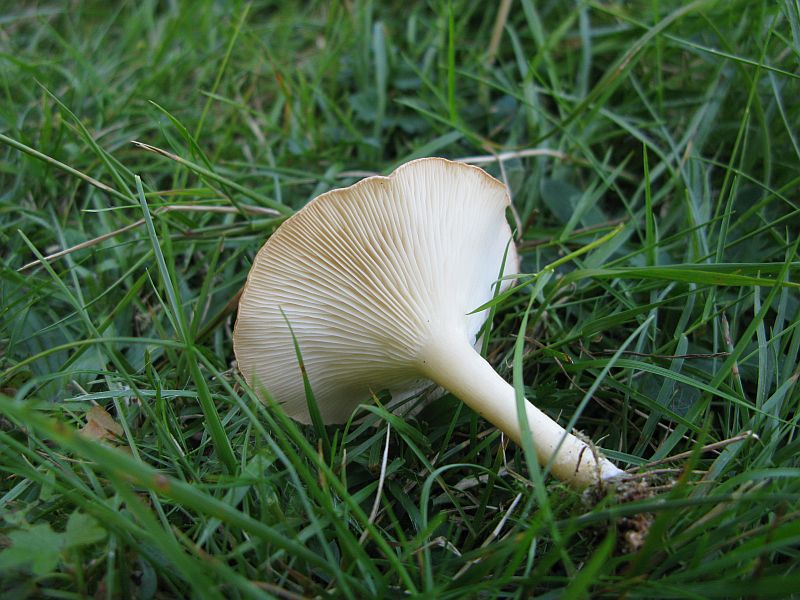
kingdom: Fungi
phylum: Basidiomycota
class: Agaricomycetes
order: Agaricales
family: Tricholomataceae
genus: Infundibulicybe
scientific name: Infundibulicybe gibba
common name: almindelig tragthat
